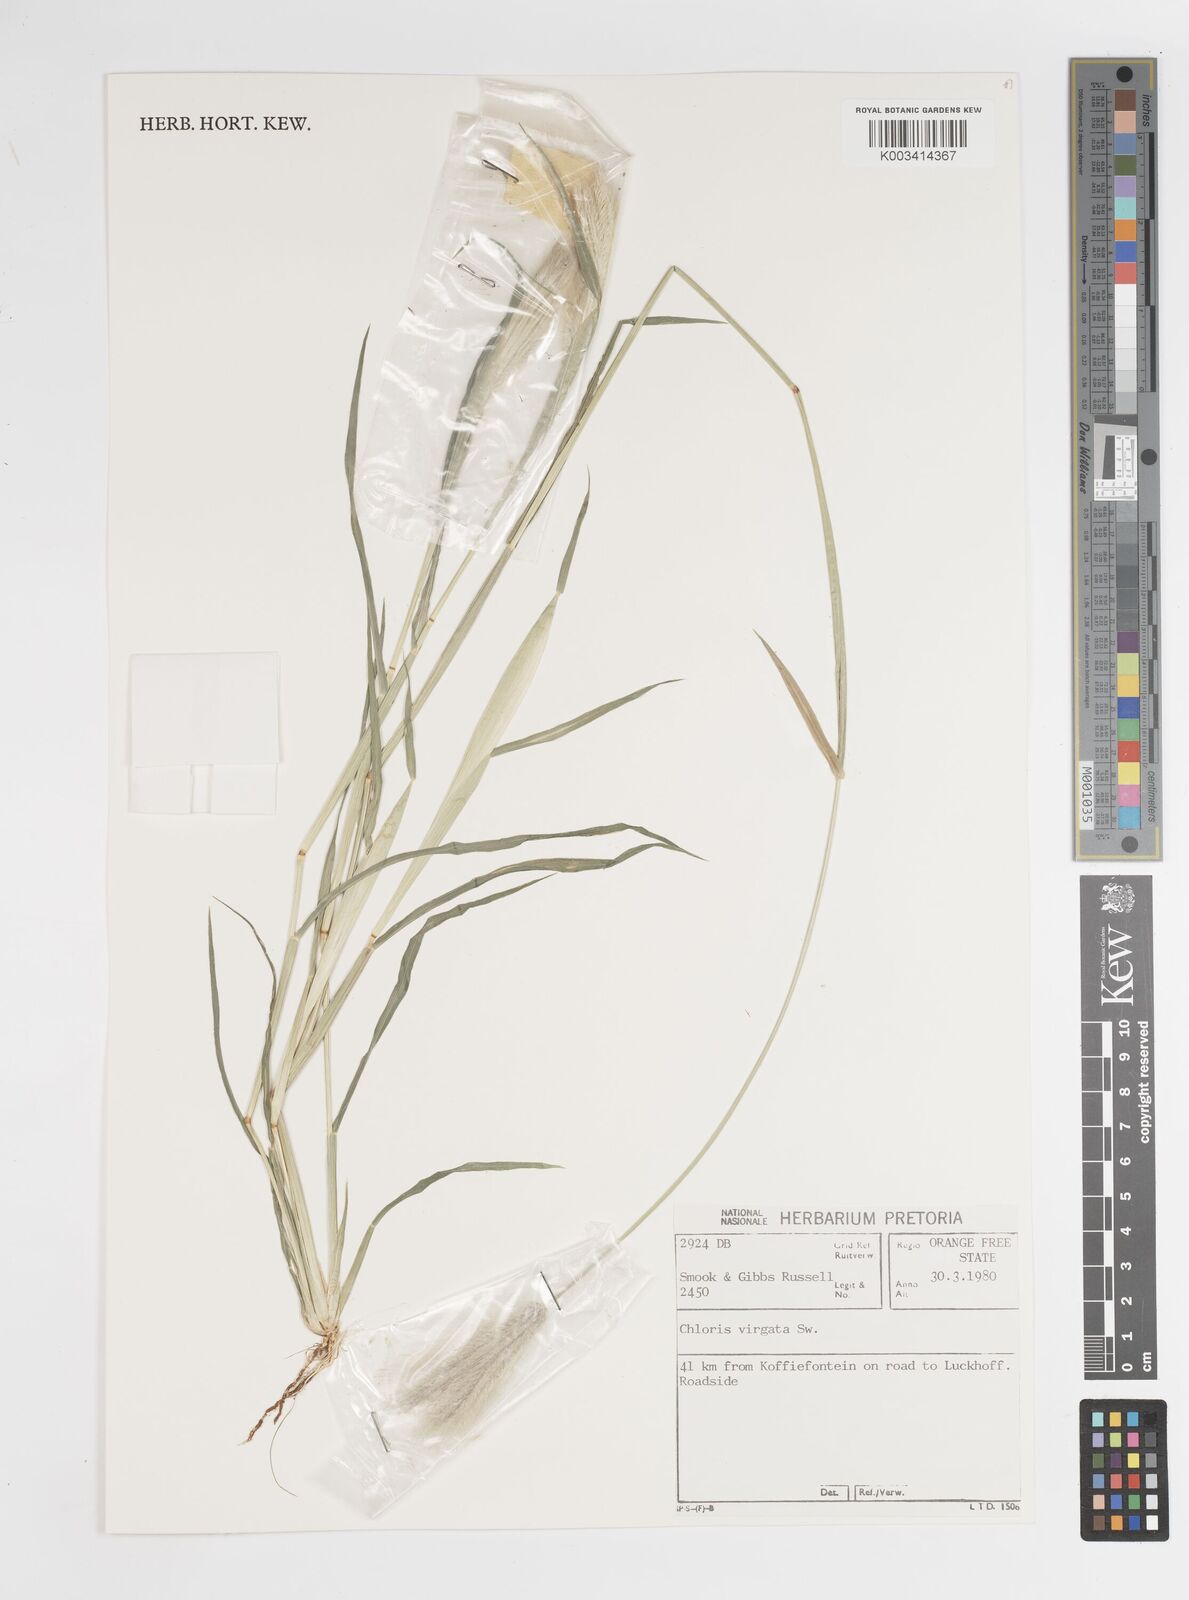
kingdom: Plantae
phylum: Tracheophyta
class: Liliopsida
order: Poales
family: Poaceae
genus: Chloris
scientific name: Chloris virgata
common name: Feathery rhodes-grass
